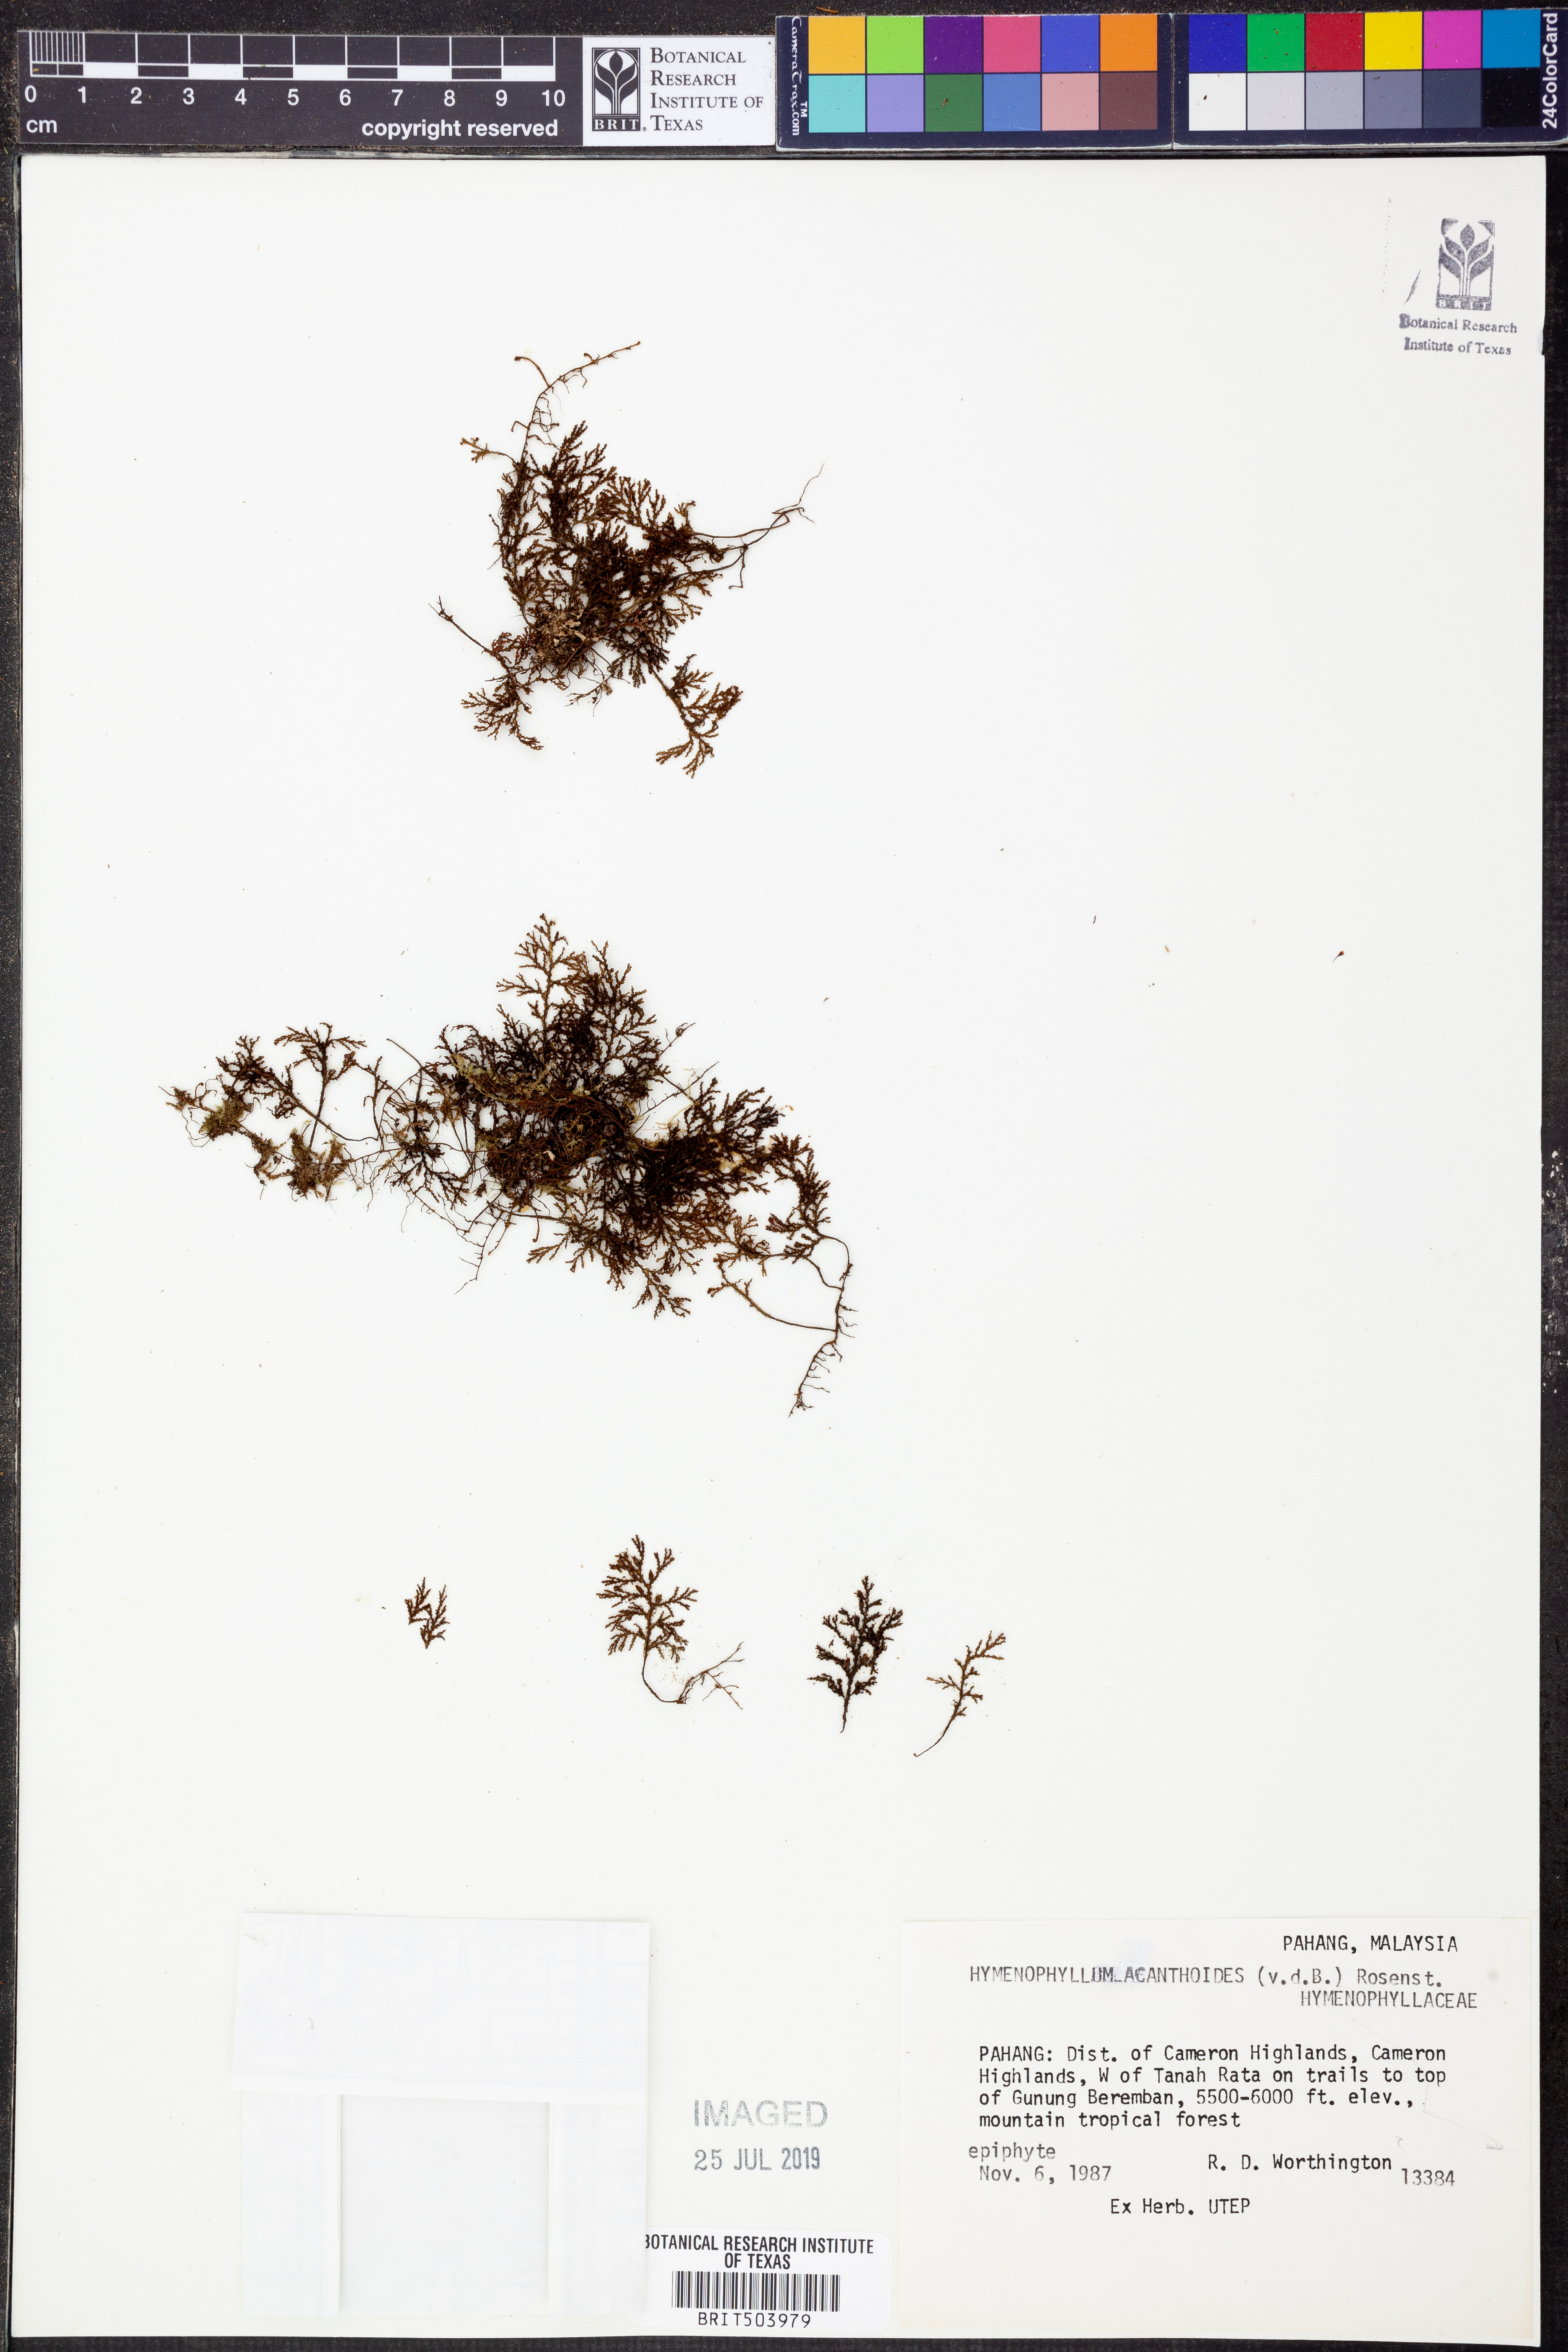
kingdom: Plantae
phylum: Tracheophyta
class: Polypodiopsida
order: Hymenophyllales
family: Hymenophyllaceae
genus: Hymenophyllum
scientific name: Hymenophyllum acanthoides
